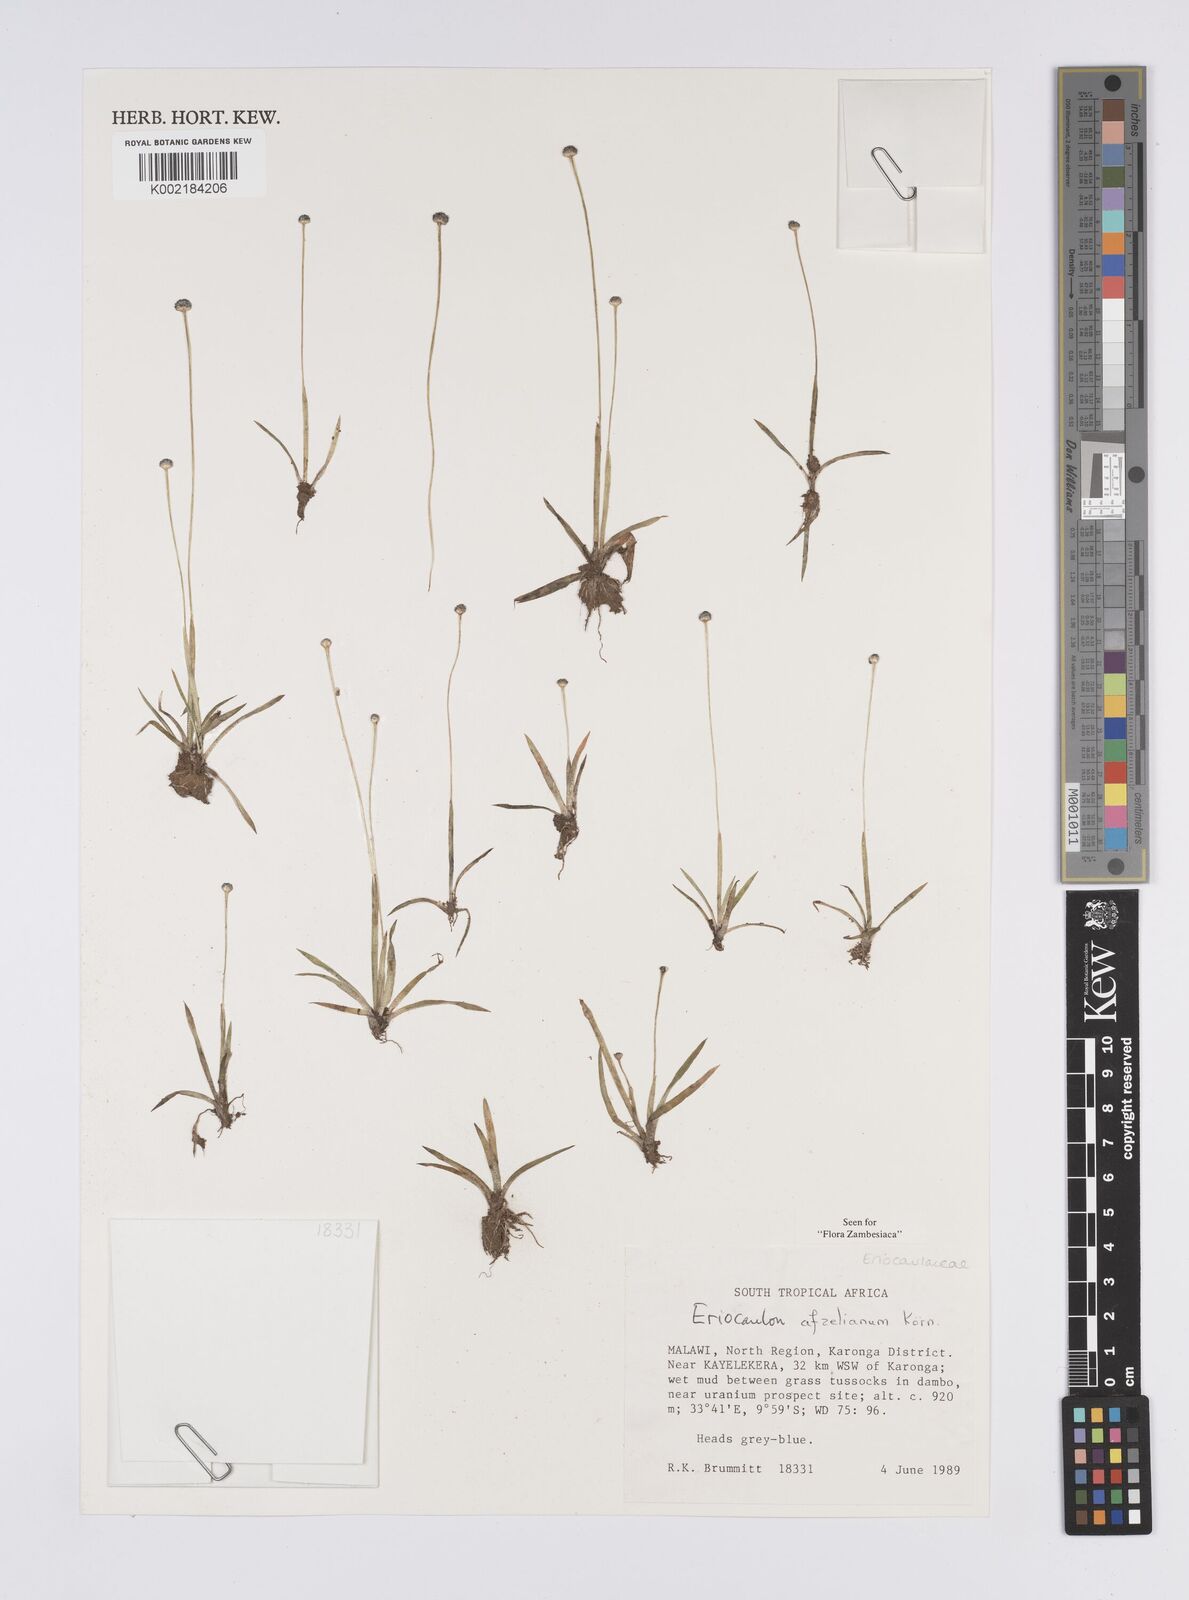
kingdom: Plantae
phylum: Tracheophyta
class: Liliopsida
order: Poales
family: Eriocaulaceae
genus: Eriocaulon
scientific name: Eriocaulon afzelianum
